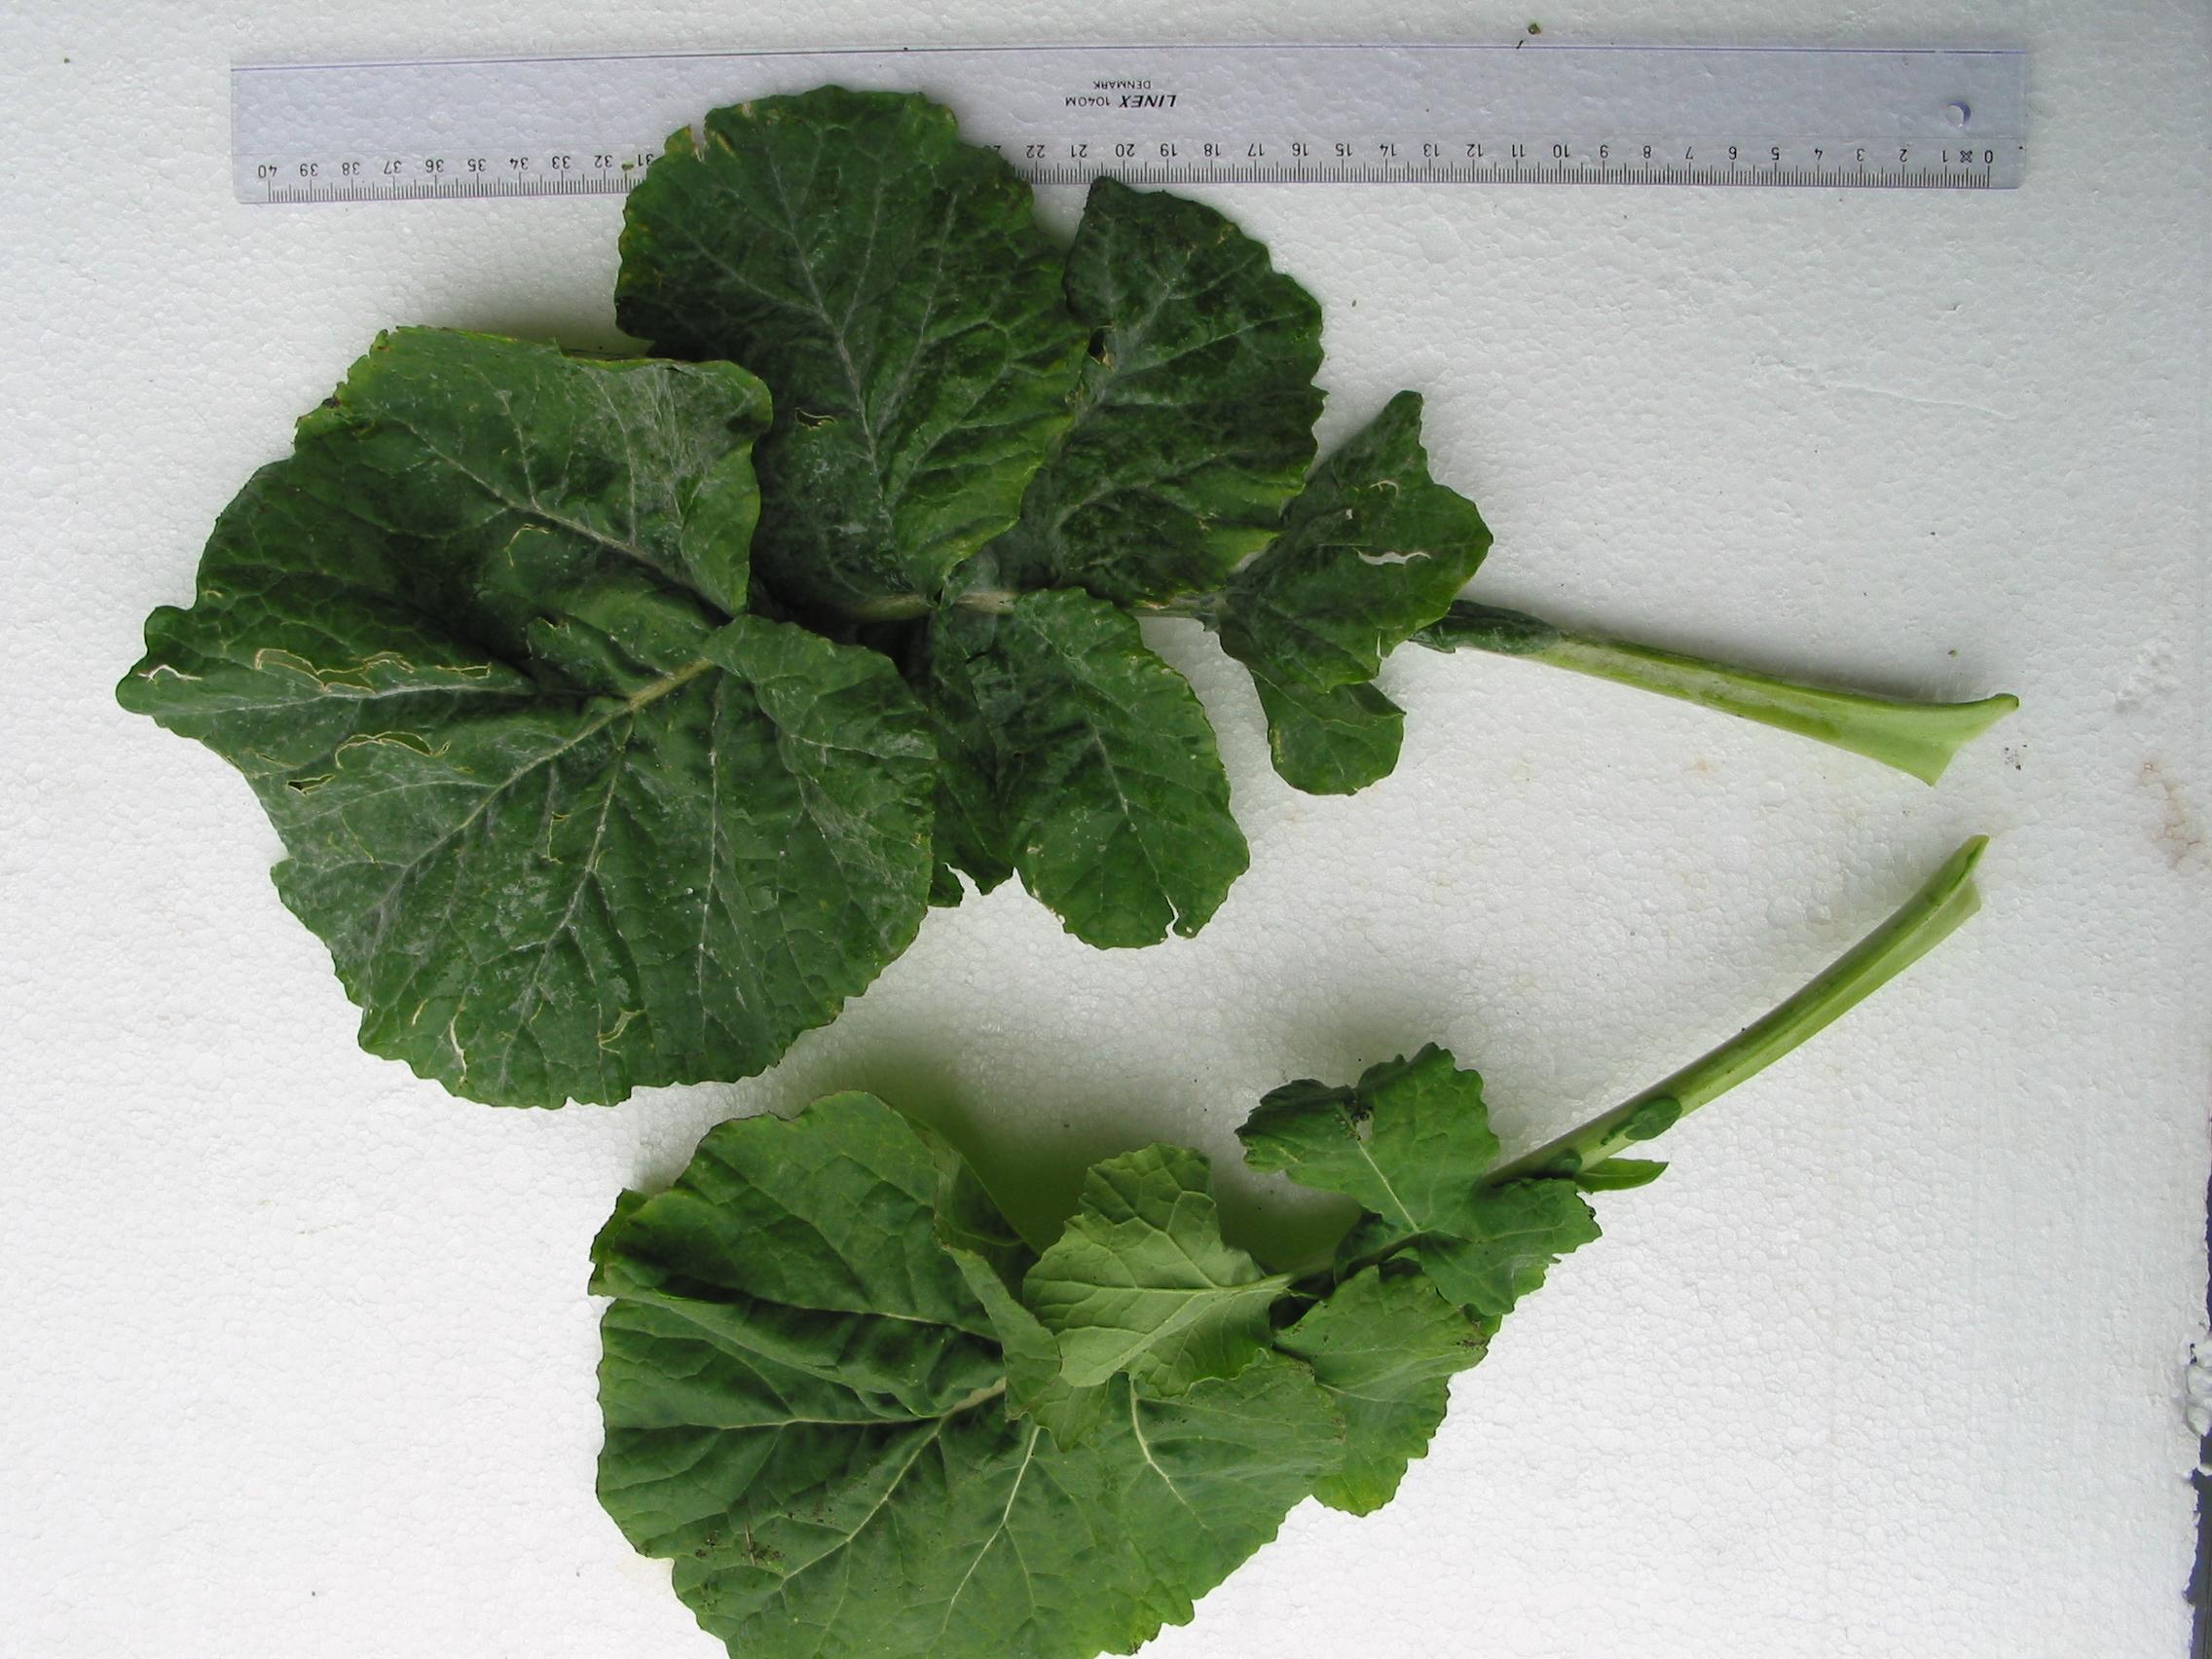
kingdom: Plantae
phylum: Tracheophyta
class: Magnoliopsida
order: Brassicales
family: Brassicaceae
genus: Brassica
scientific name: Brassica napus
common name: Rape
